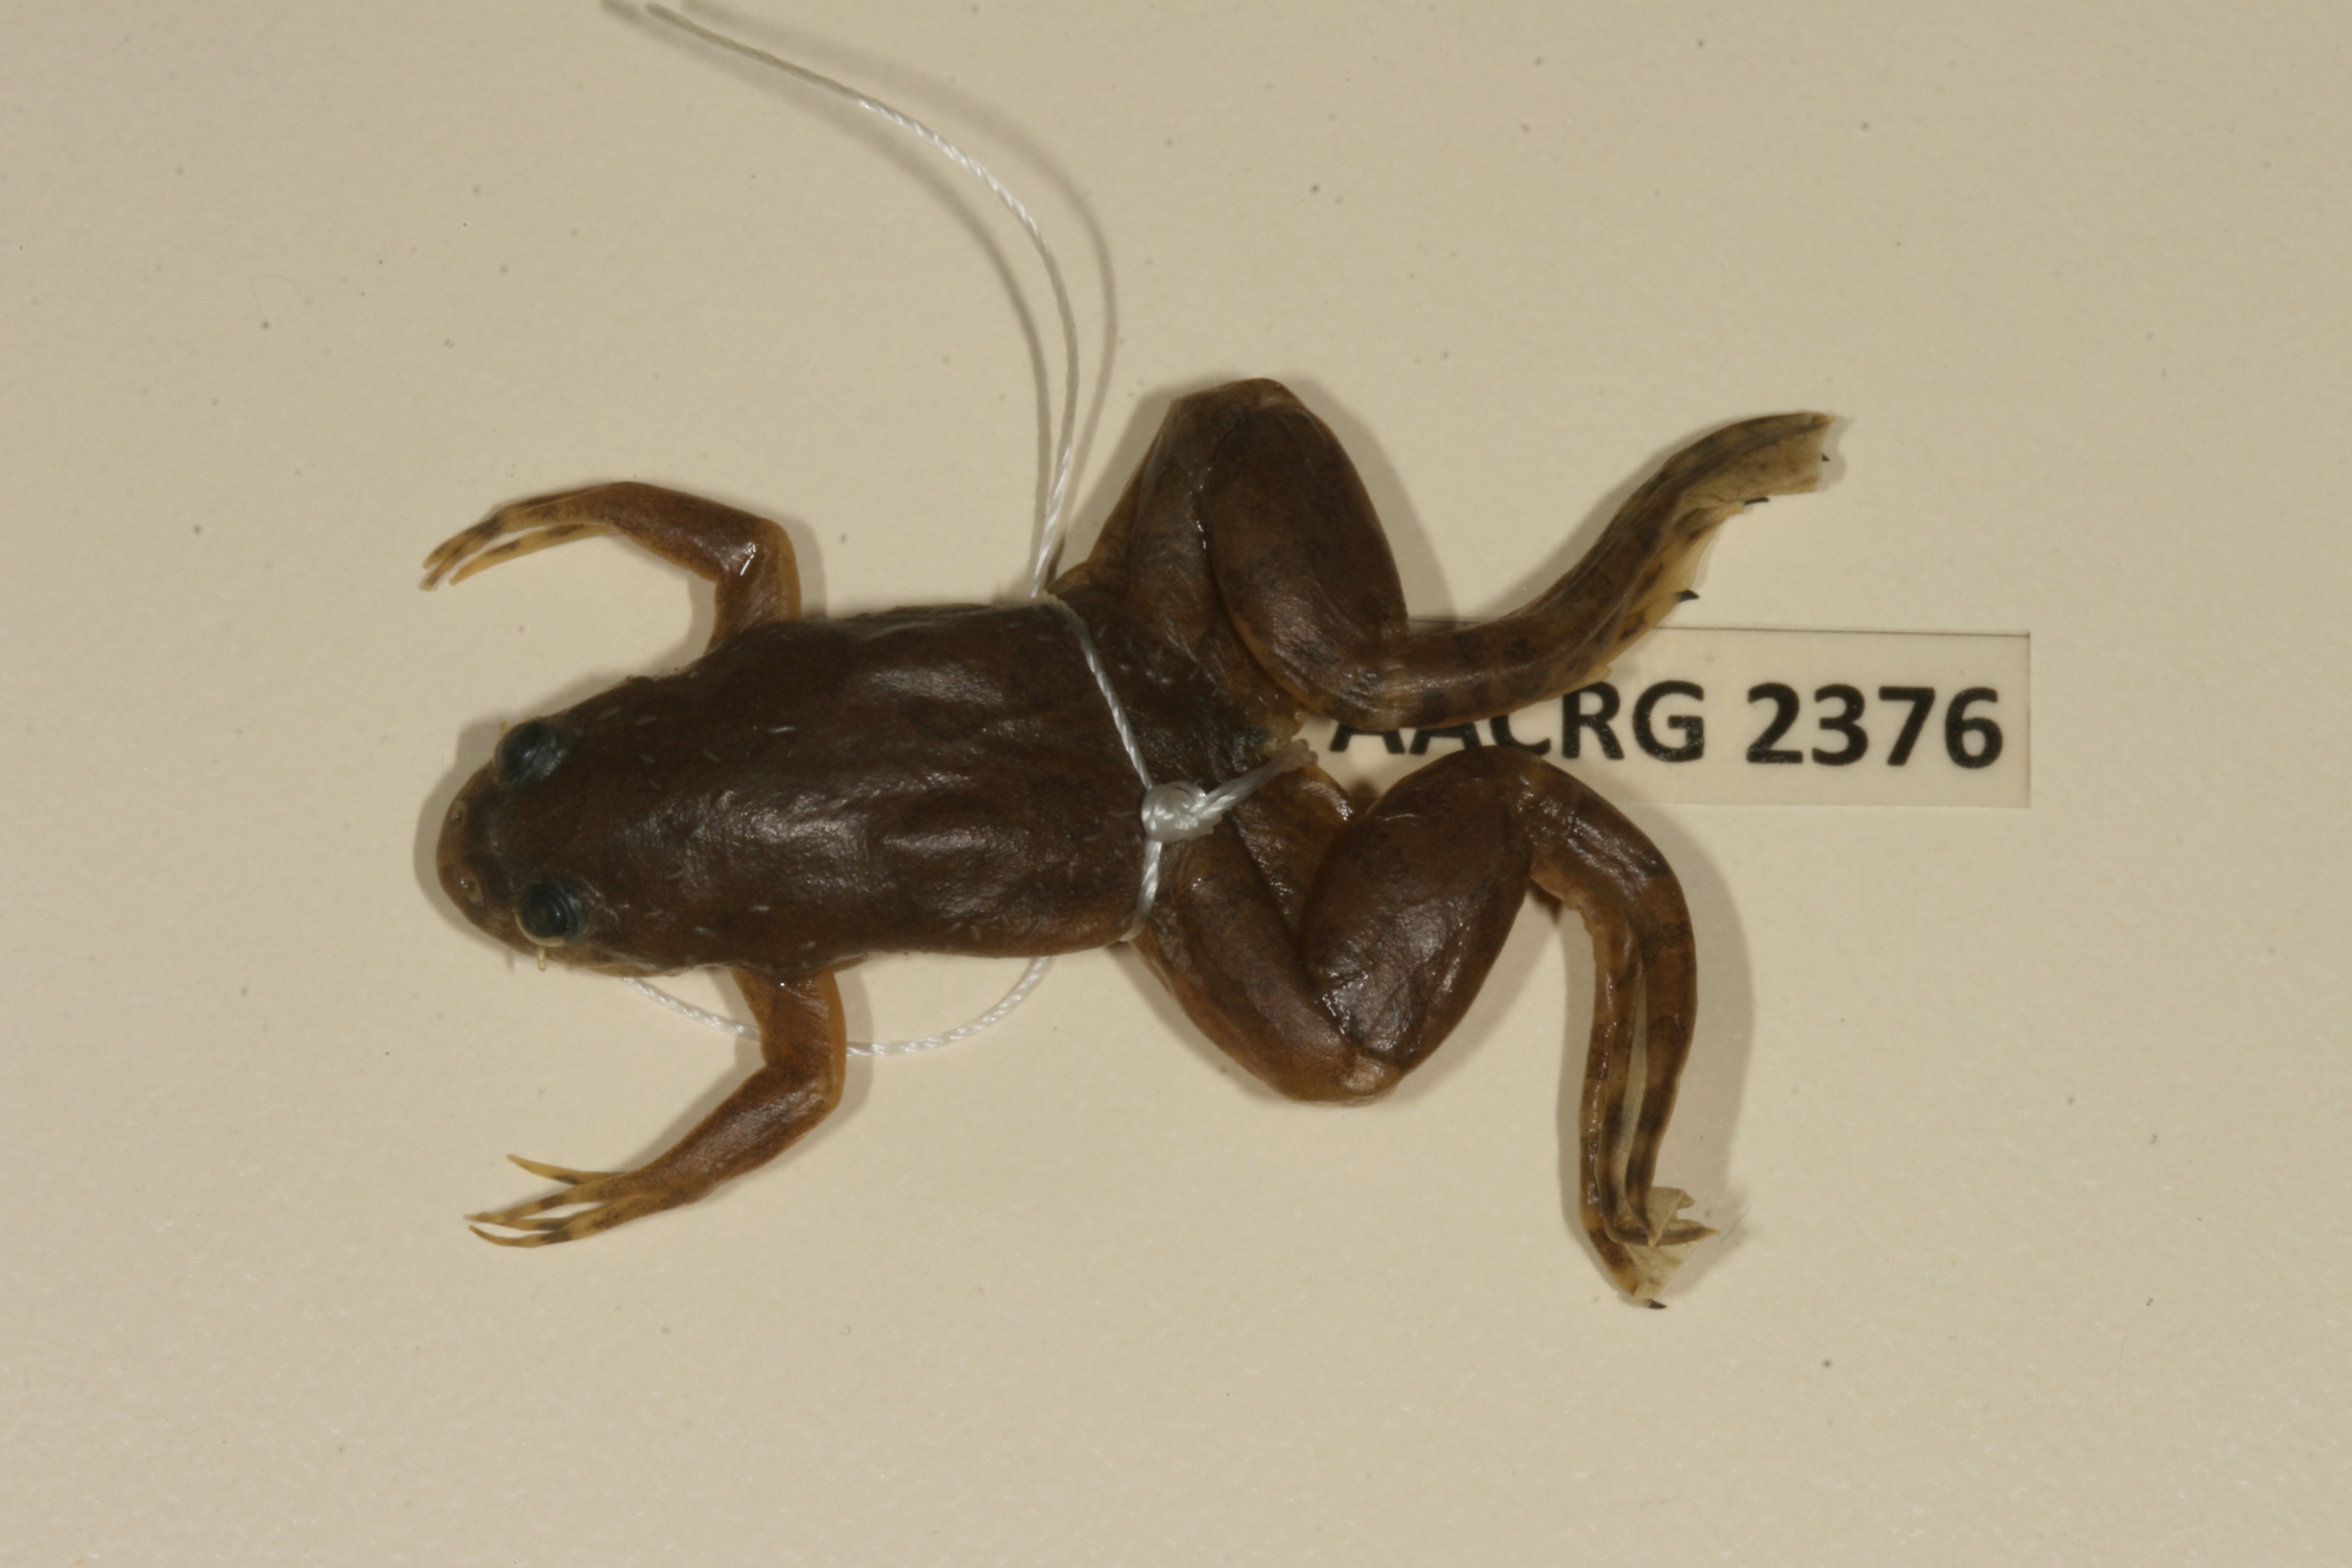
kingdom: Animalia
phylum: Chordata
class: Amphibia
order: Anura
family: Pipidae
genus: Xenopus
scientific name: Xenopus muelleri
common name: Muller's clawed frog
